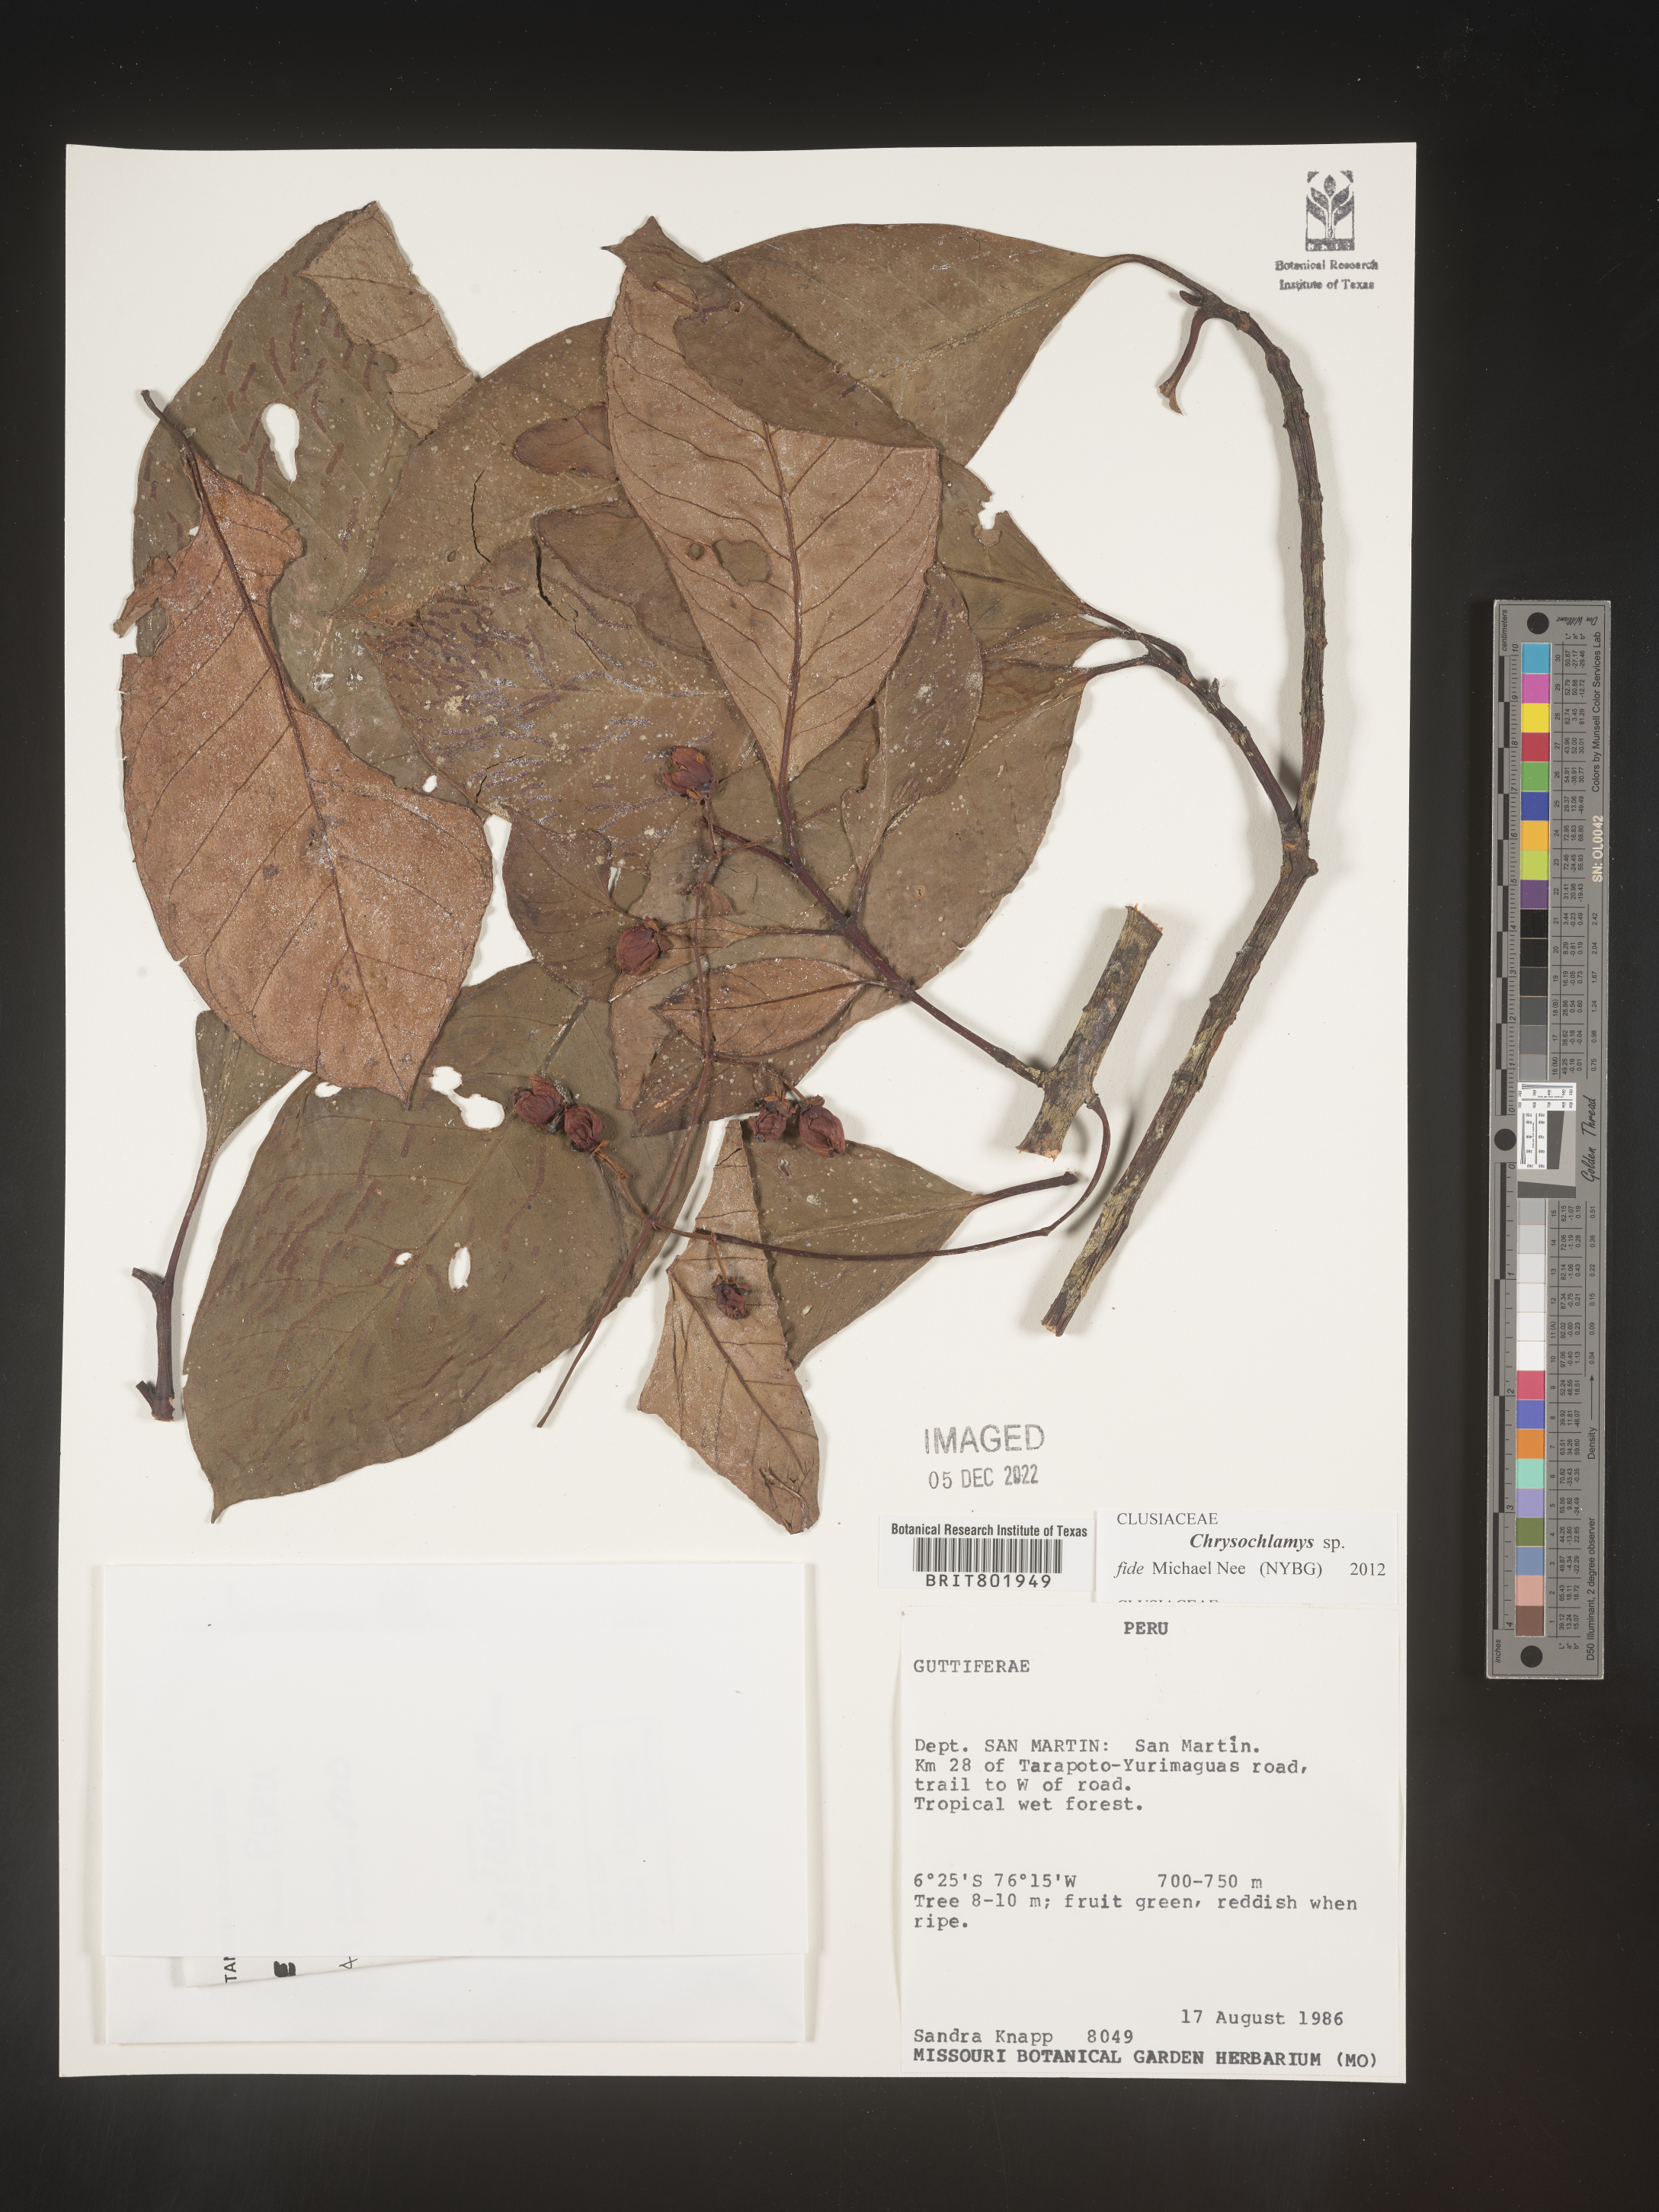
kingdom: Plantae
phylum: Tracheophyta
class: Magnoliopsida
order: Malpighiales
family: Clusiaceae
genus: Chrysochlamys
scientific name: Chrysochlamys
